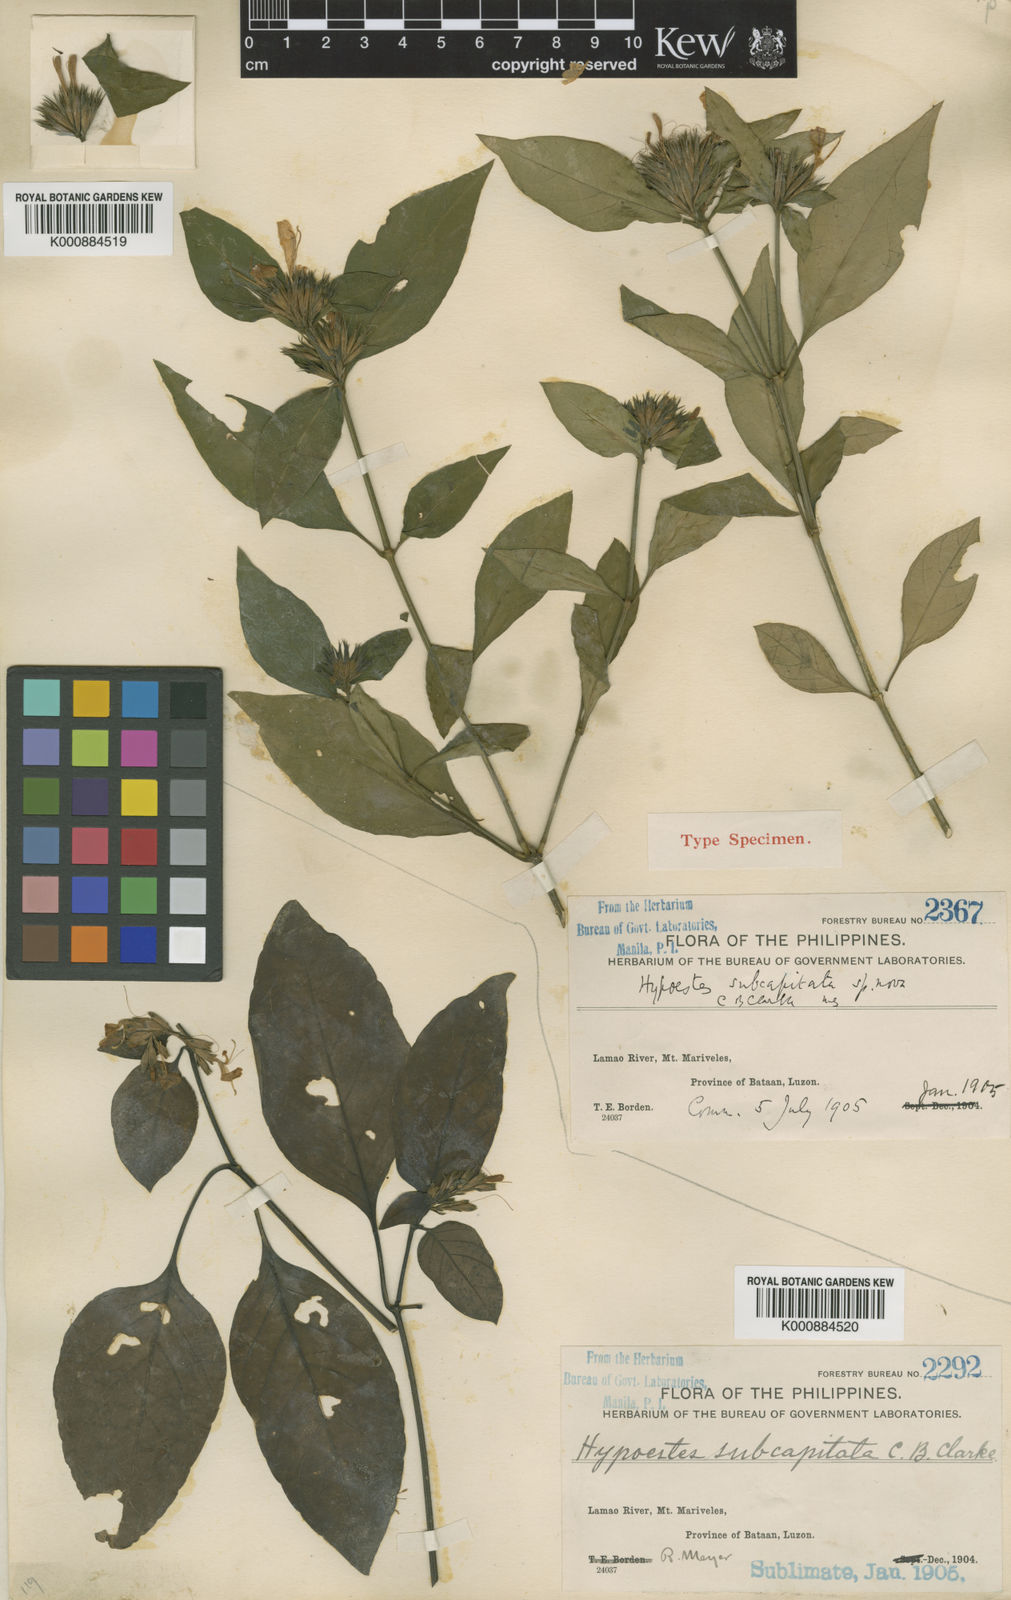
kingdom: Plantae
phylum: Tracheophyta
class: Magnoliopsida
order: Lamiales
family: Acanthaceae
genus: Hypoestes
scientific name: Hypoestes subcapitata
